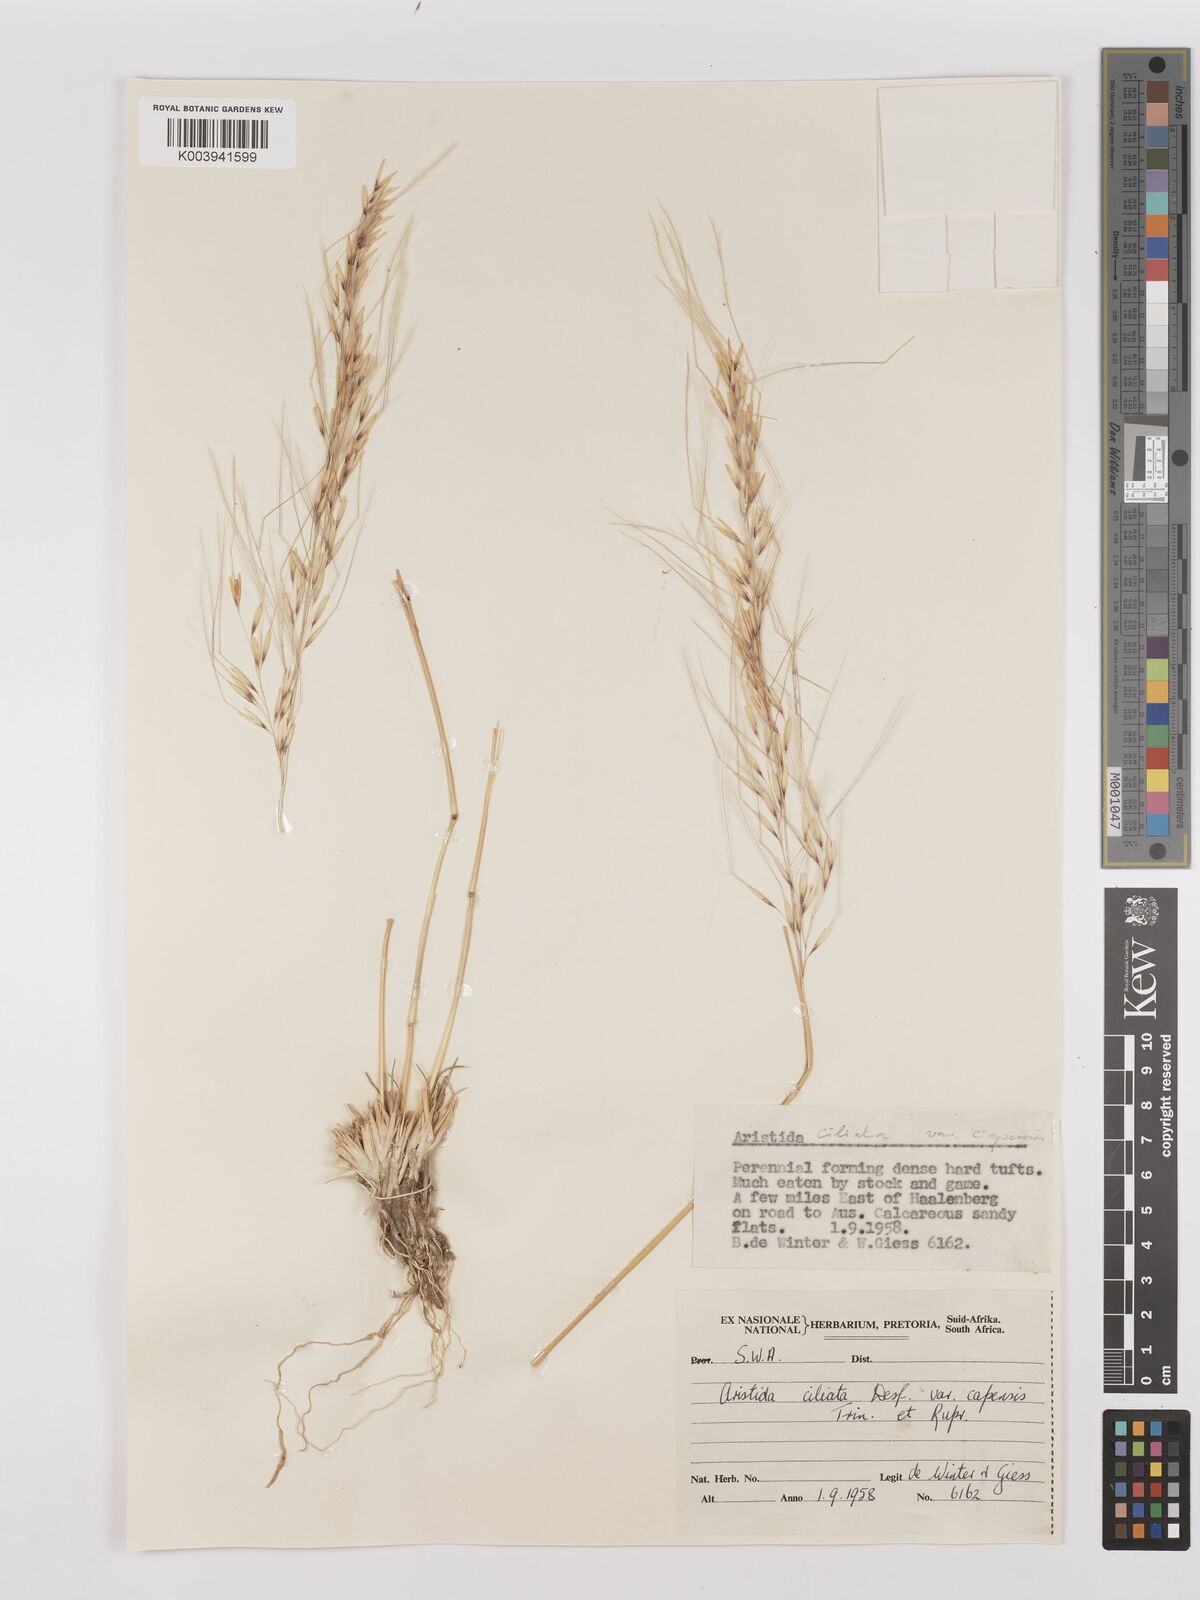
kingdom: Plantae
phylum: Tracheophyta
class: Liliopsida
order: Poales
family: Poaceae
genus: Stipagrostis
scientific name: Stipagrostis ciliata
